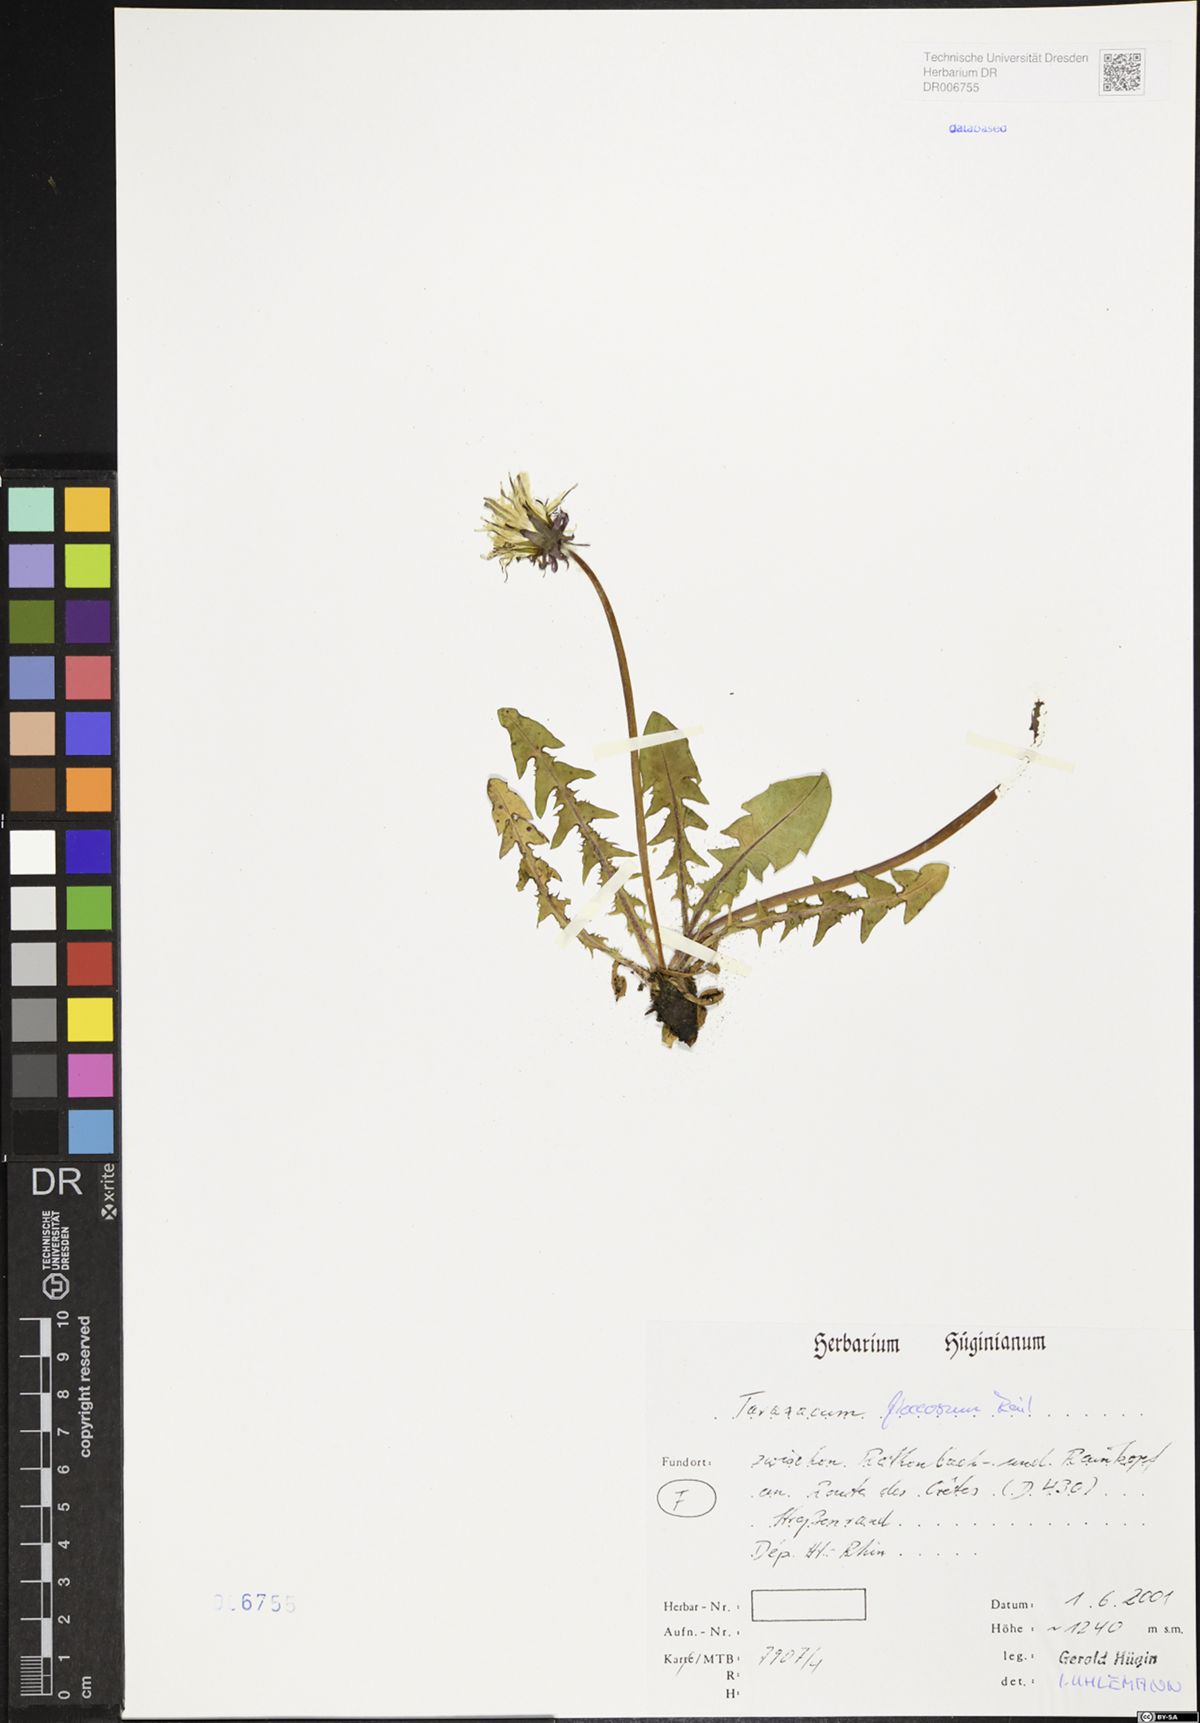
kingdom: Plantae
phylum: Tracheophyta
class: Magnoliopsida
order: Asterales
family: Asteraceae
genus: Taraxacum
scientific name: Taraxacum floccosum
